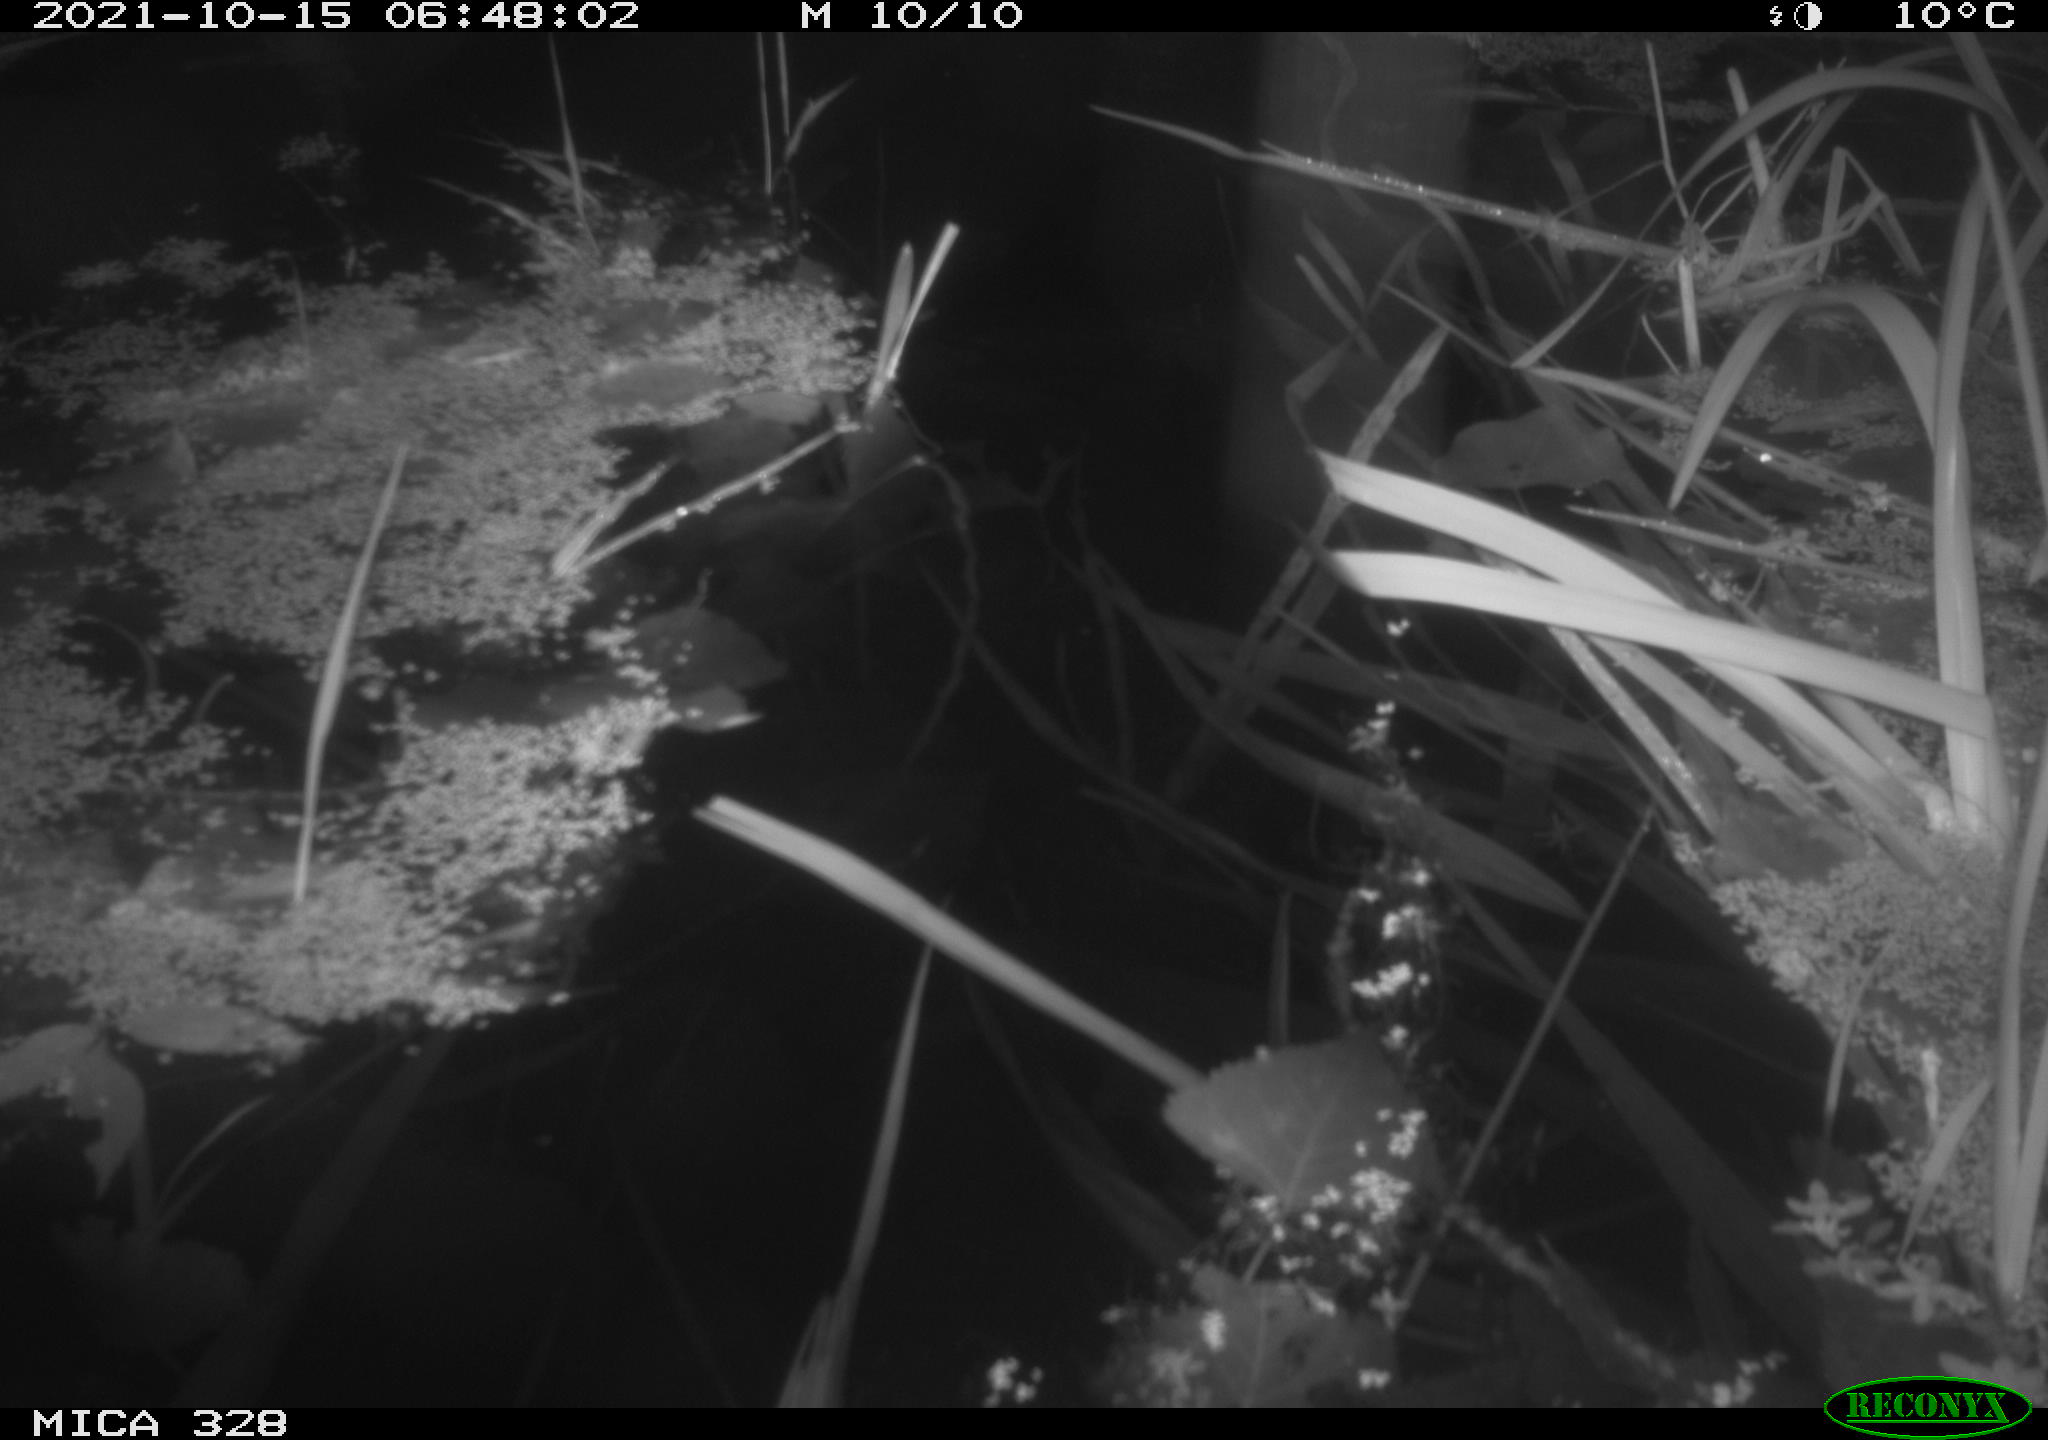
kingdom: Animalia
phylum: Chordata
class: Mammalia
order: Rodentia
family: Cricetidae
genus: Ondatra
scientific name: Ondatra zibethicus
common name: Muskrat
